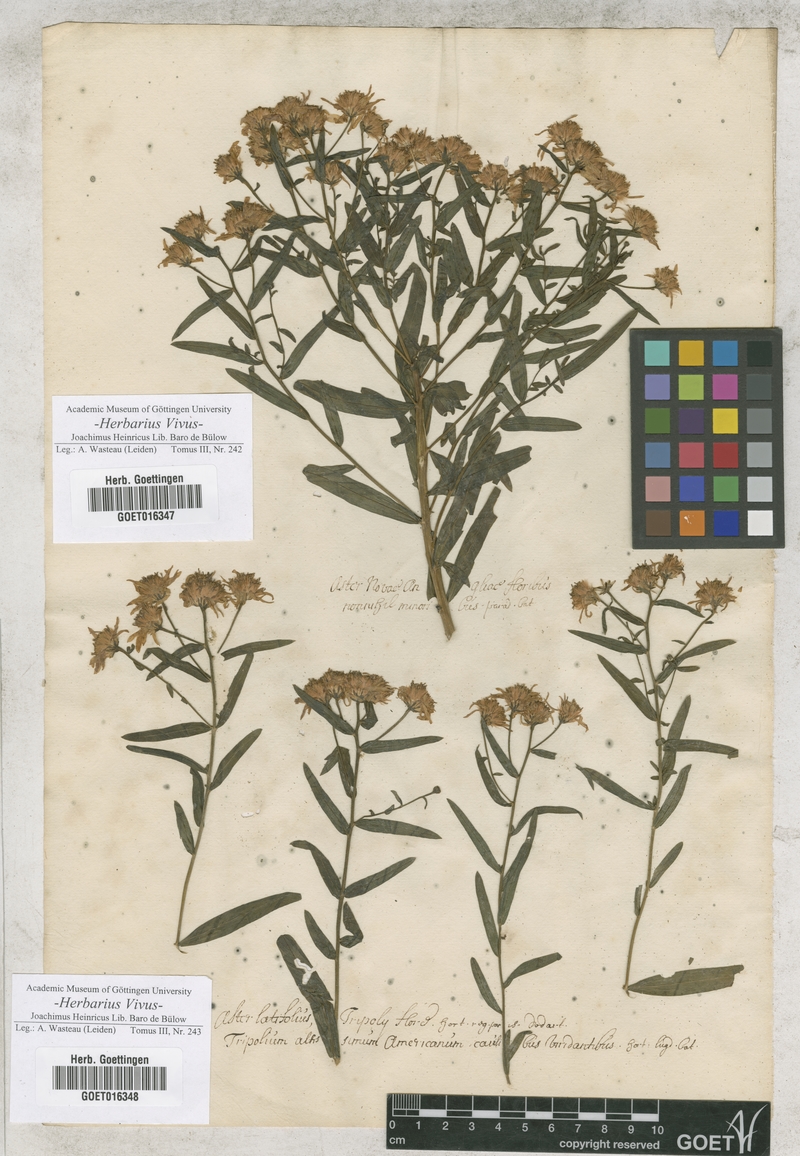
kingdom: Plantae
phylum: Tracheophyta
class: Magnoliopsida
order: Asterales
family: Asteraceae
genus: Aster
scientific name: Aster
